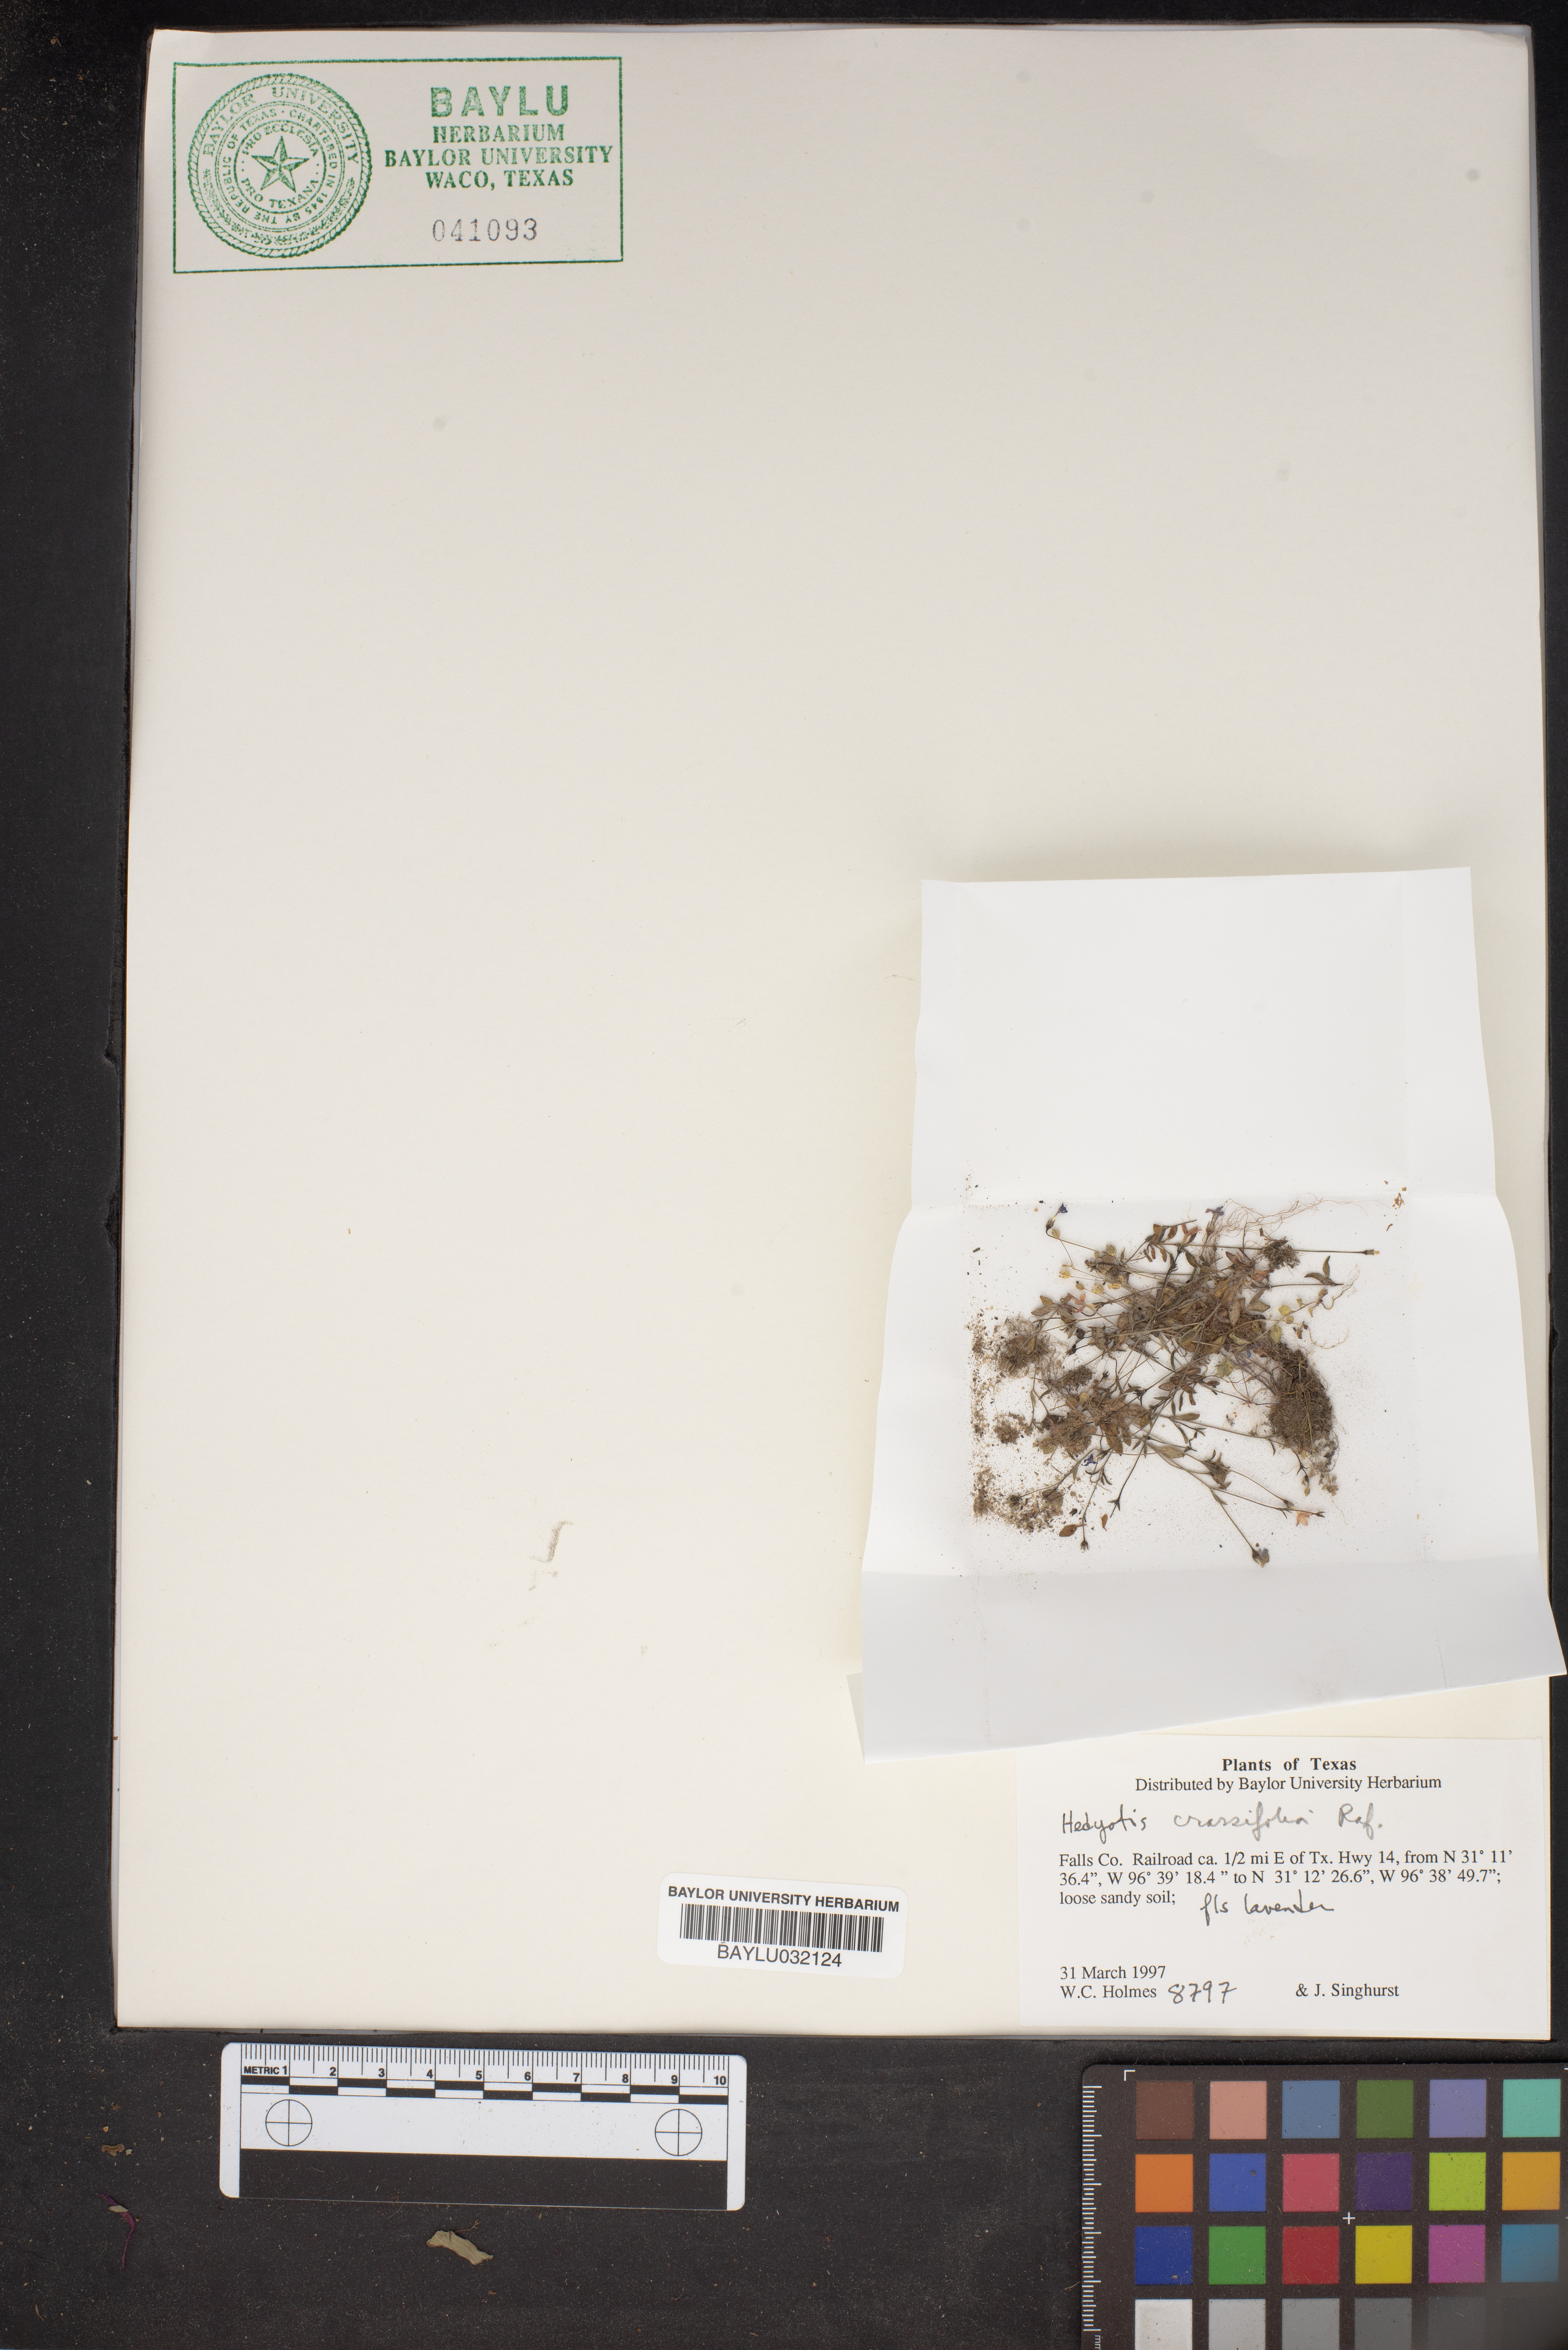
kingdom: Plantae
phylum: Tracheophyta
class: Magnoliopsida
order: Gentianales
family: Rubiaceae
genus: Houstonia
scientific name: Houstonia pusilla
